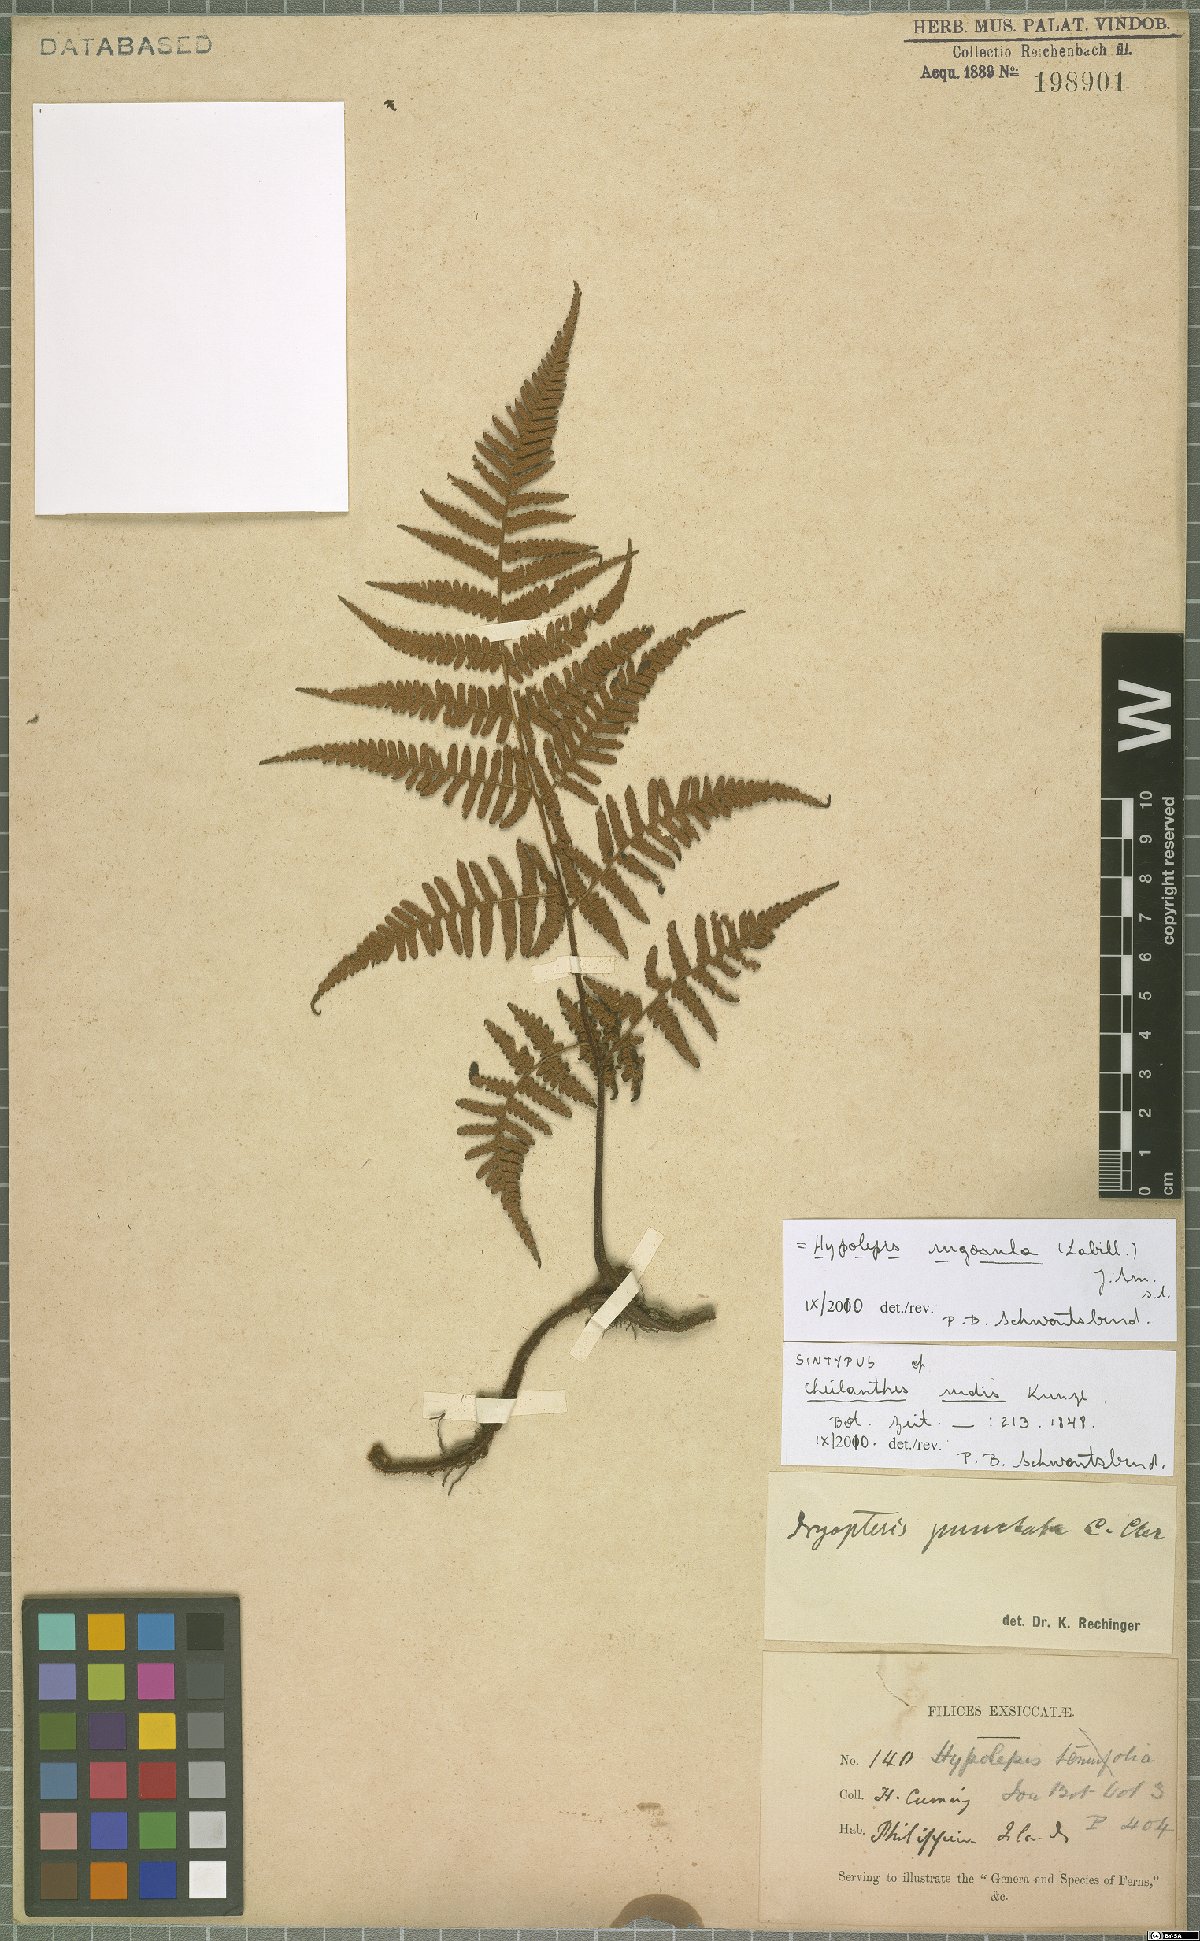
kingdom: Plantae
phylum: Tracheophyta
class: Polypodiopsida
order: Polypodiales
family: Dennstaedtiaceae
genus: Hypolepis
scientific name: Hypolepis rugosula
